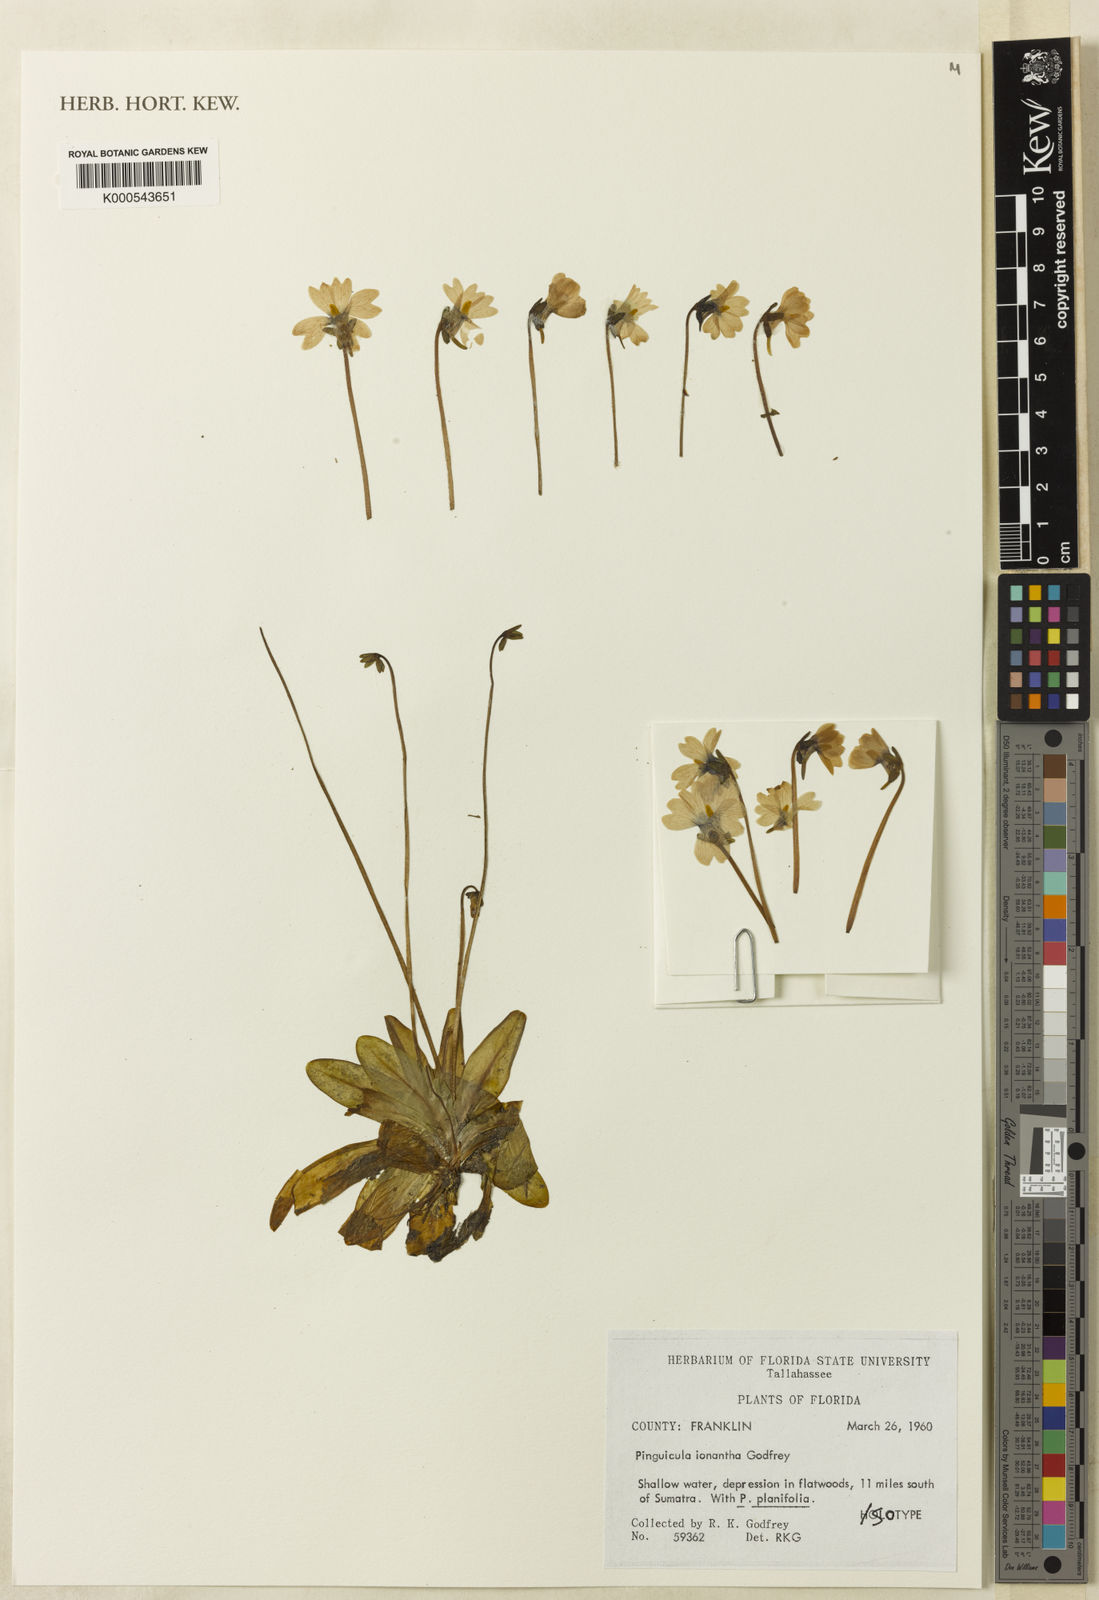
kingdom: Plantae
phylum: Tracheophyta
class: Magnoliopsida
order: Lamiales
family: Lentibulariaceae
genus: Pinguicula
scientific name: Pinguicula ionantha
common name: Godfrey's butterwort
